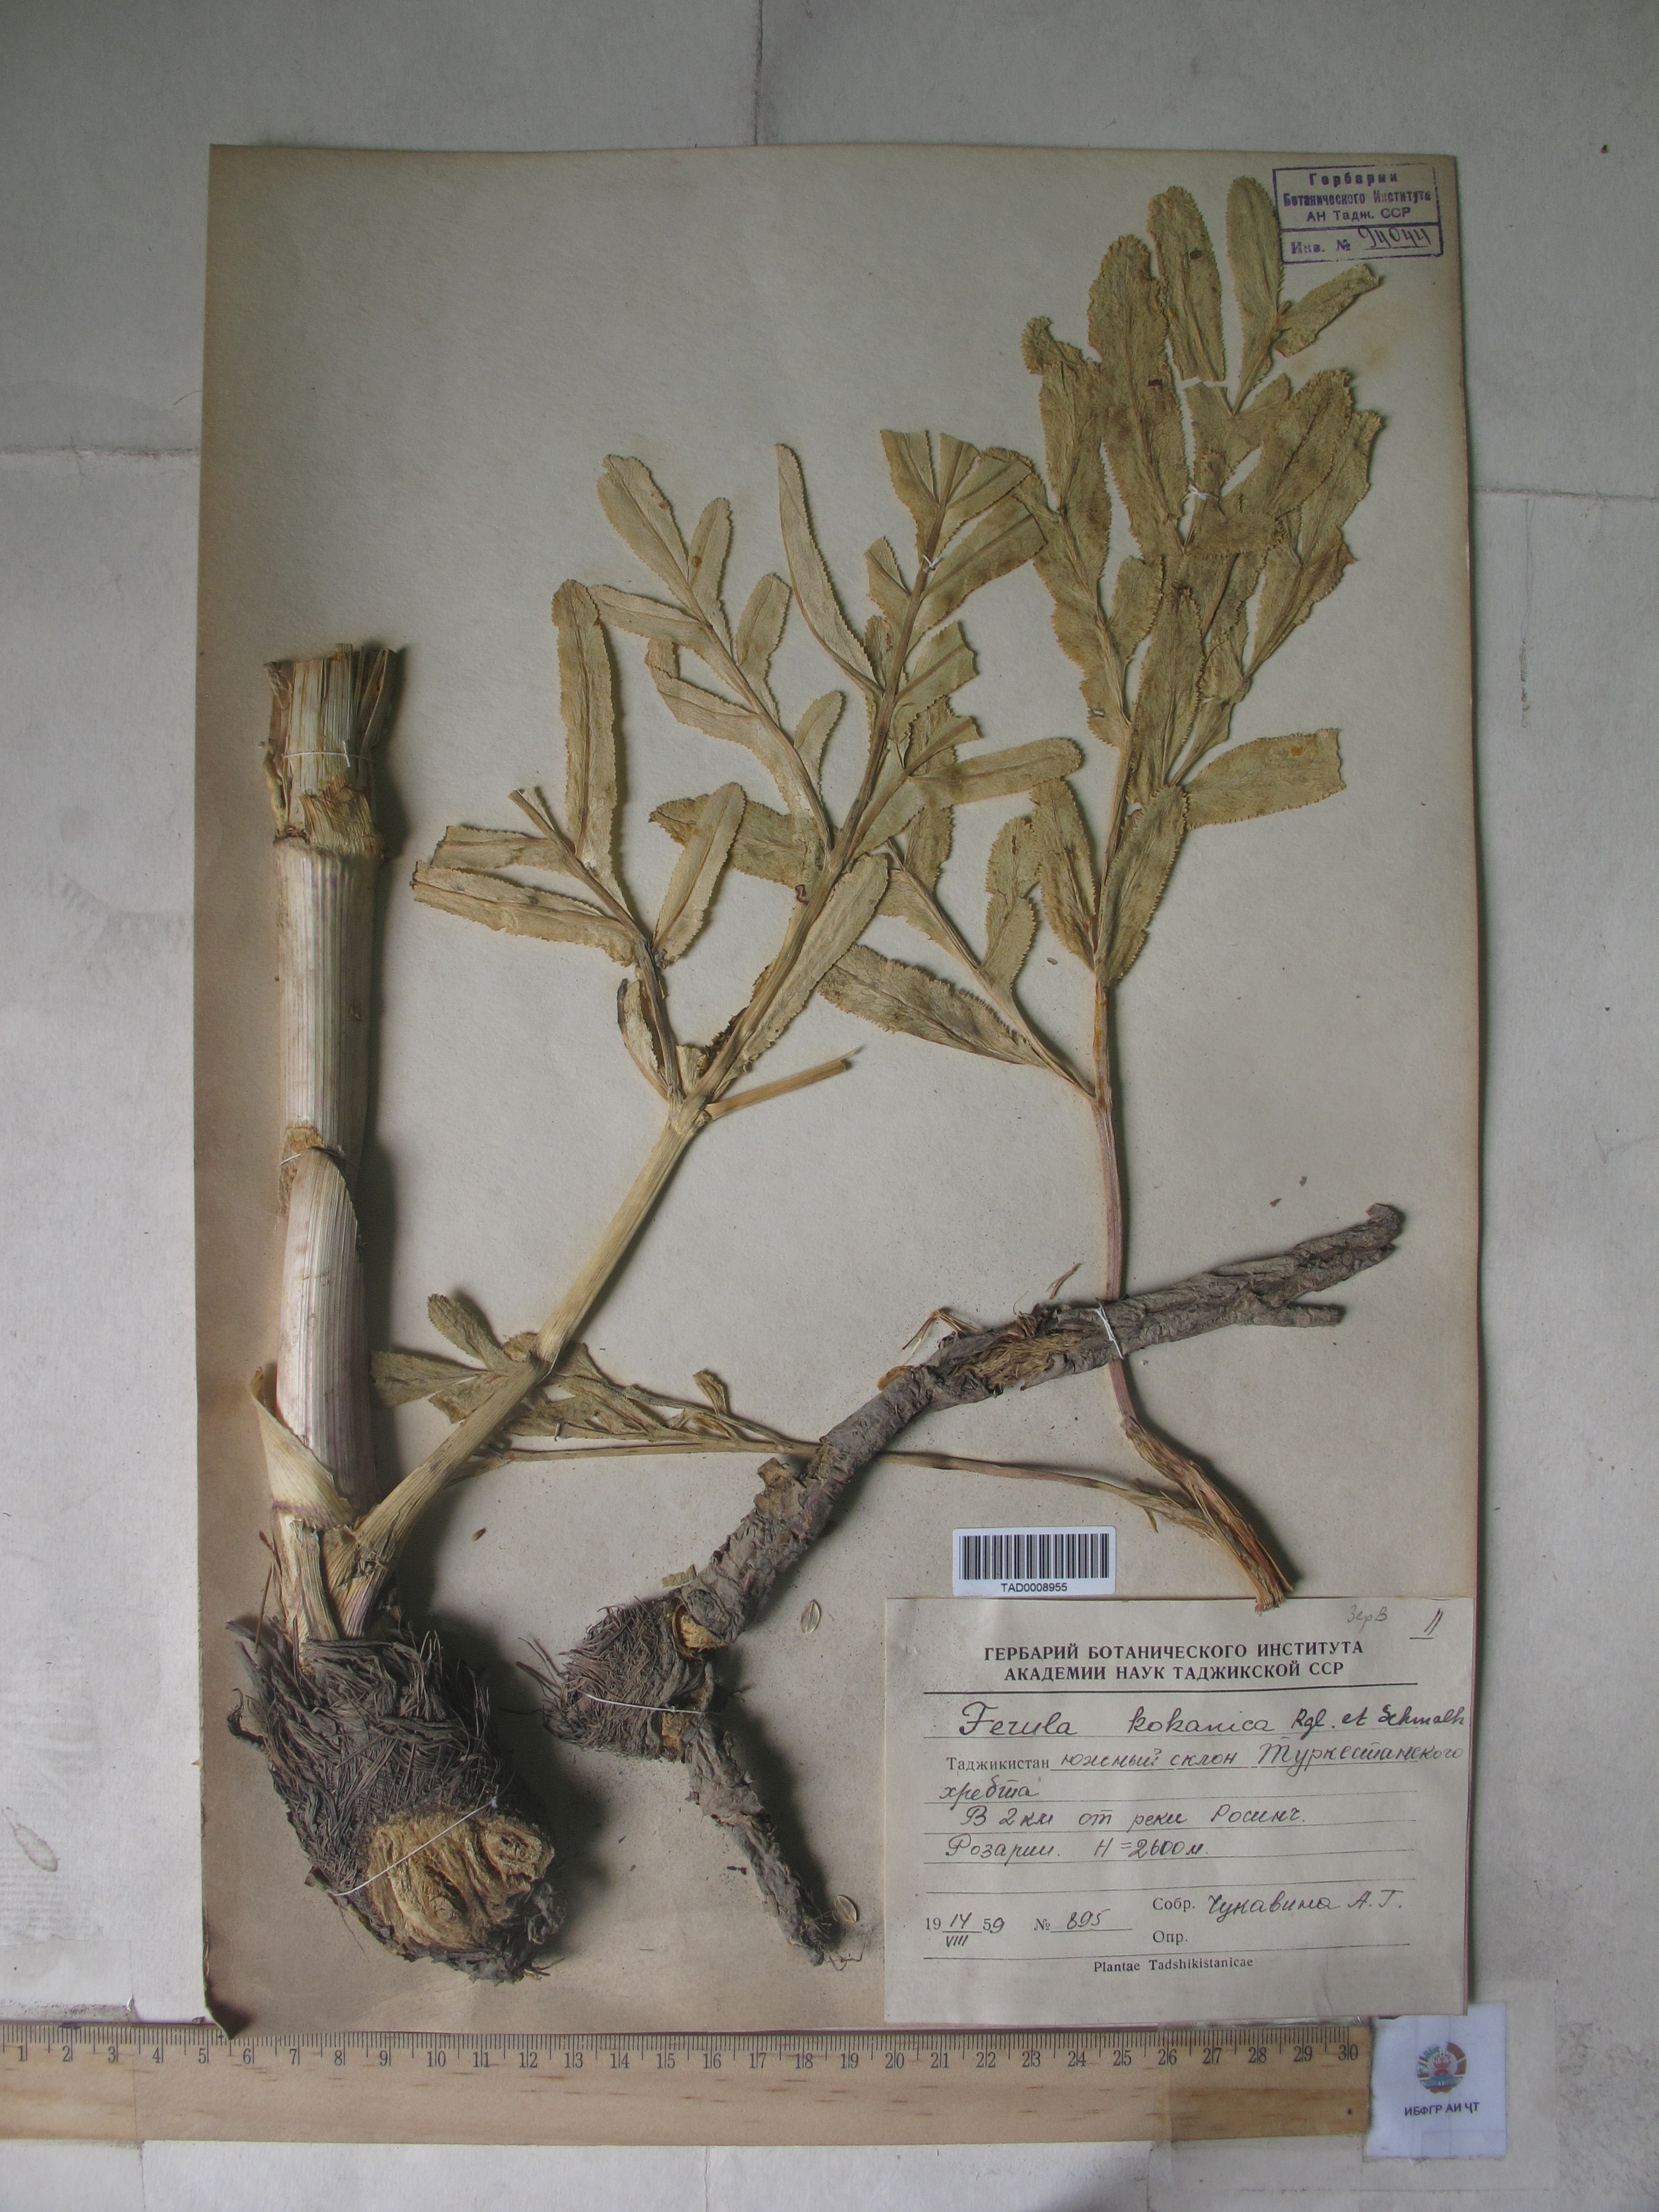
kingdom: Plantae
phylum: Tracheophyta
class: Magnoliopsida
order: Apiales
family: Apiaceae
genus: Ferula
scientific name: Ferula kokanica
